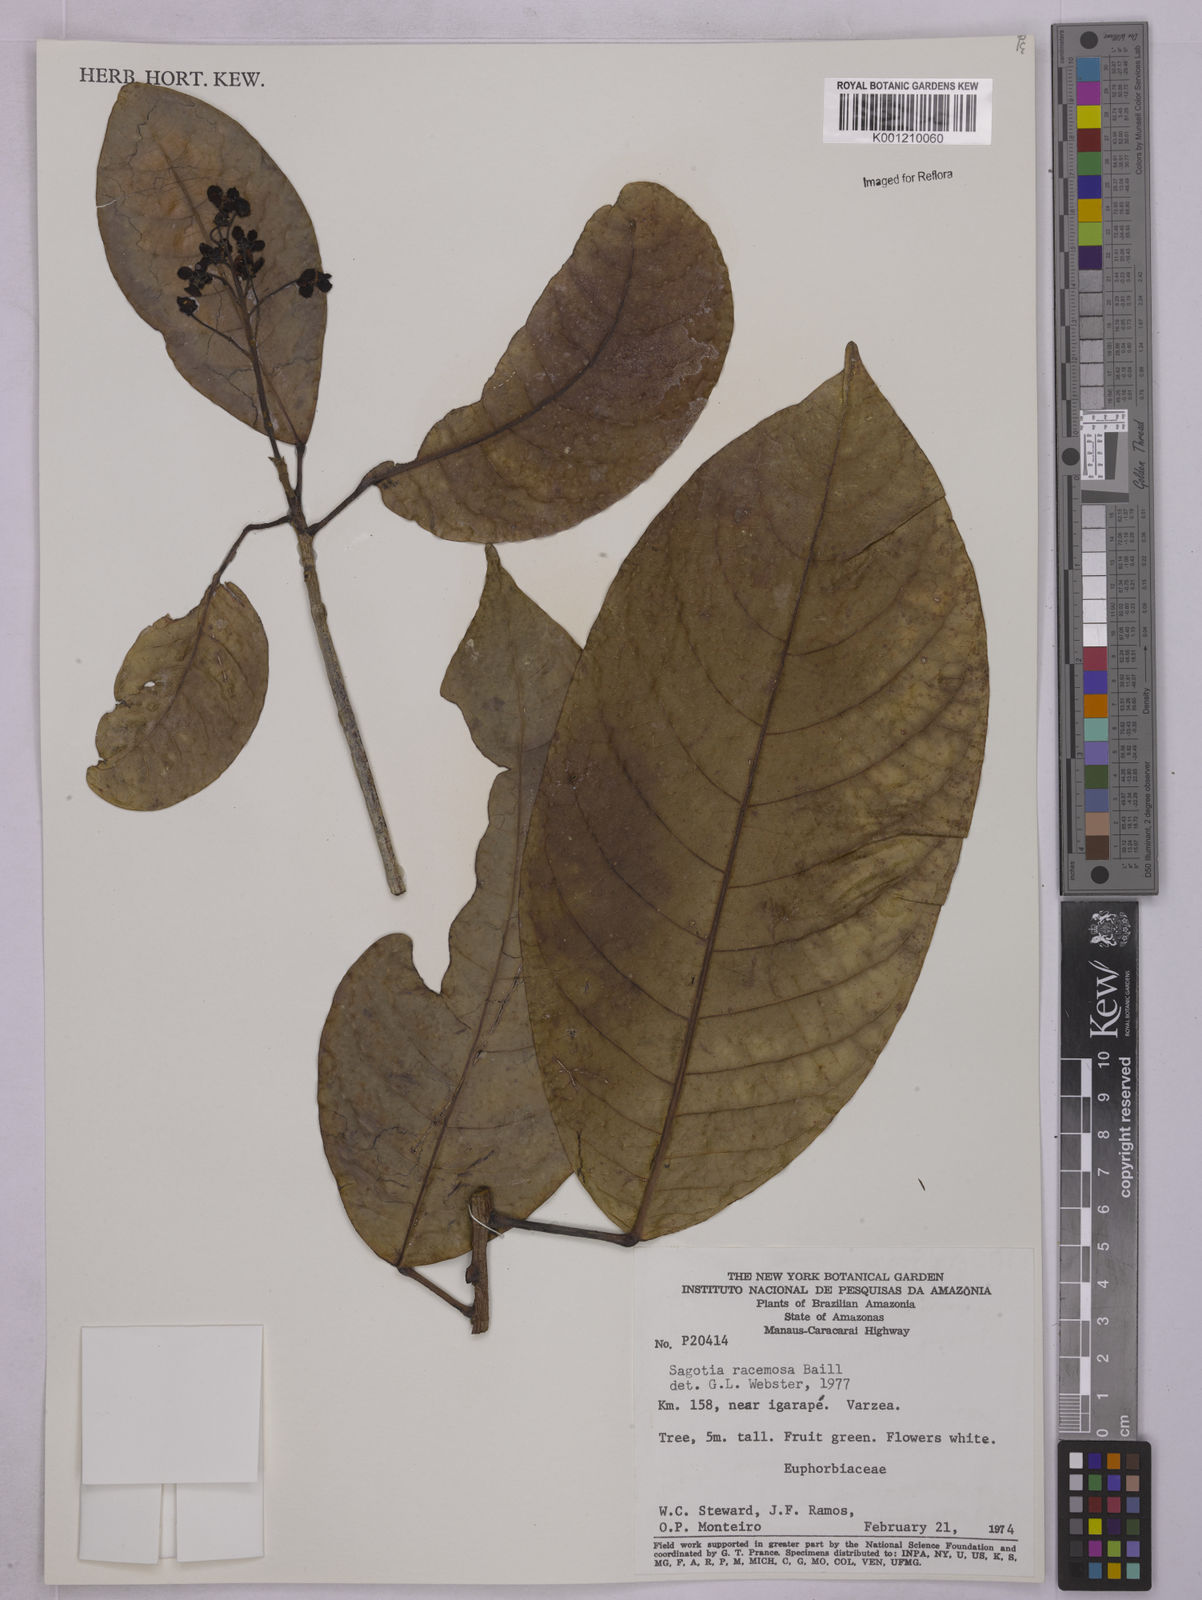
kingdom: Plantae
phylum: Tracheophyta
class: Magnoliopsida
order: Malpighiales
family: Euphorbiaceae
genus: Sagotia
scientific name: Sagotia racemosa
